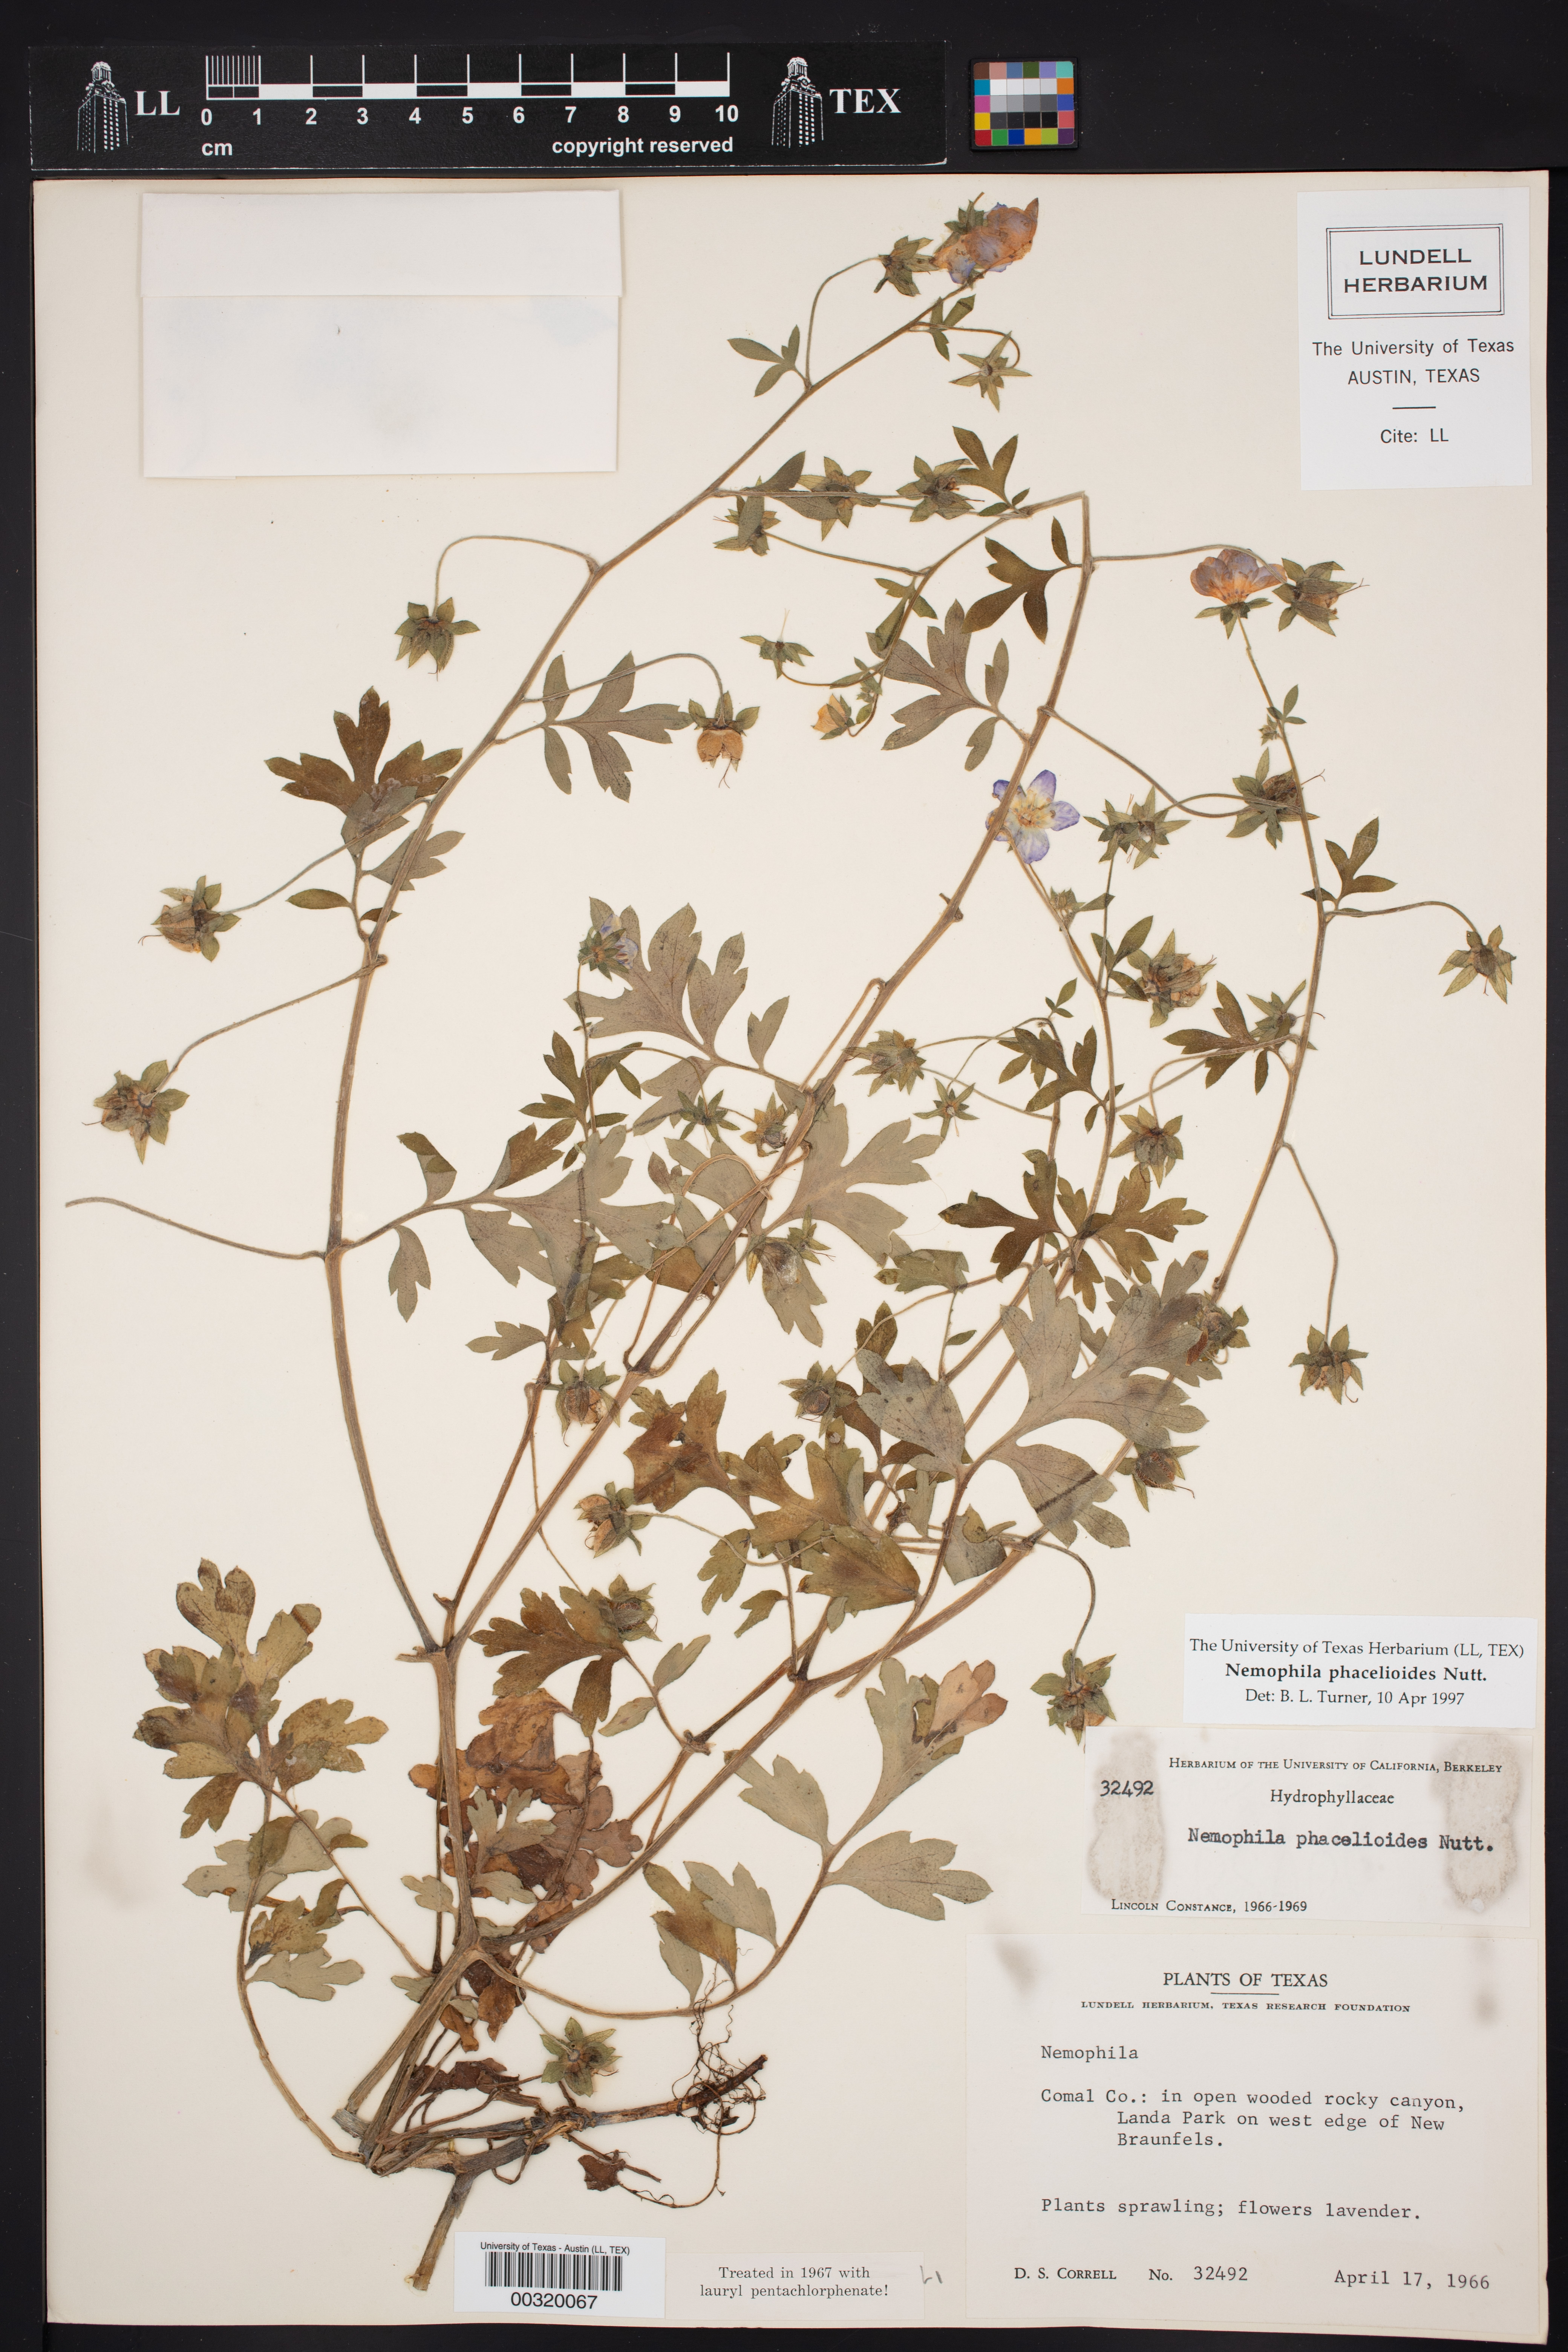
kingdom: Plantae
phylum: Tracheophyta
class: Magnoliopsida
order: Boraginales
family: Hydrophyllaceae
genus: Nemophila
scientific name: Nemophila phacelioides
